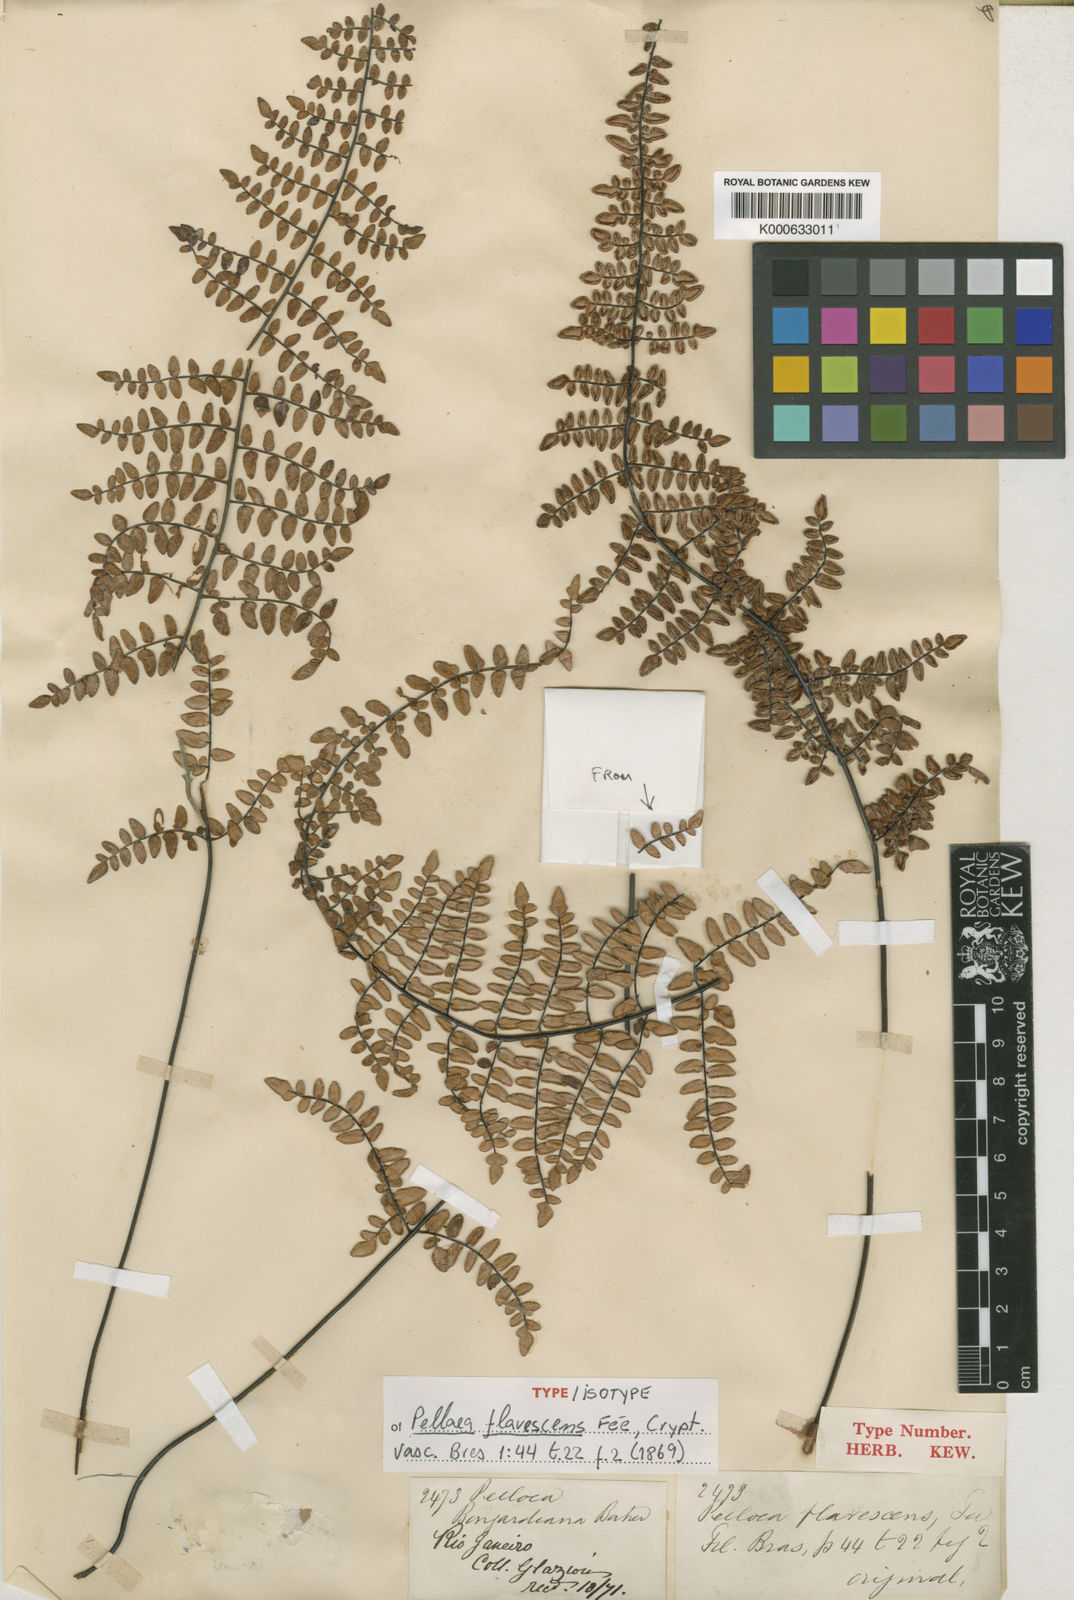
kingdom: Plantae
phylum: Tracheophyta
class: Polypodiopsida
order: Polypodiales
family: Pteridaceae
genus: Pellaea
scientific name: Pellaea
